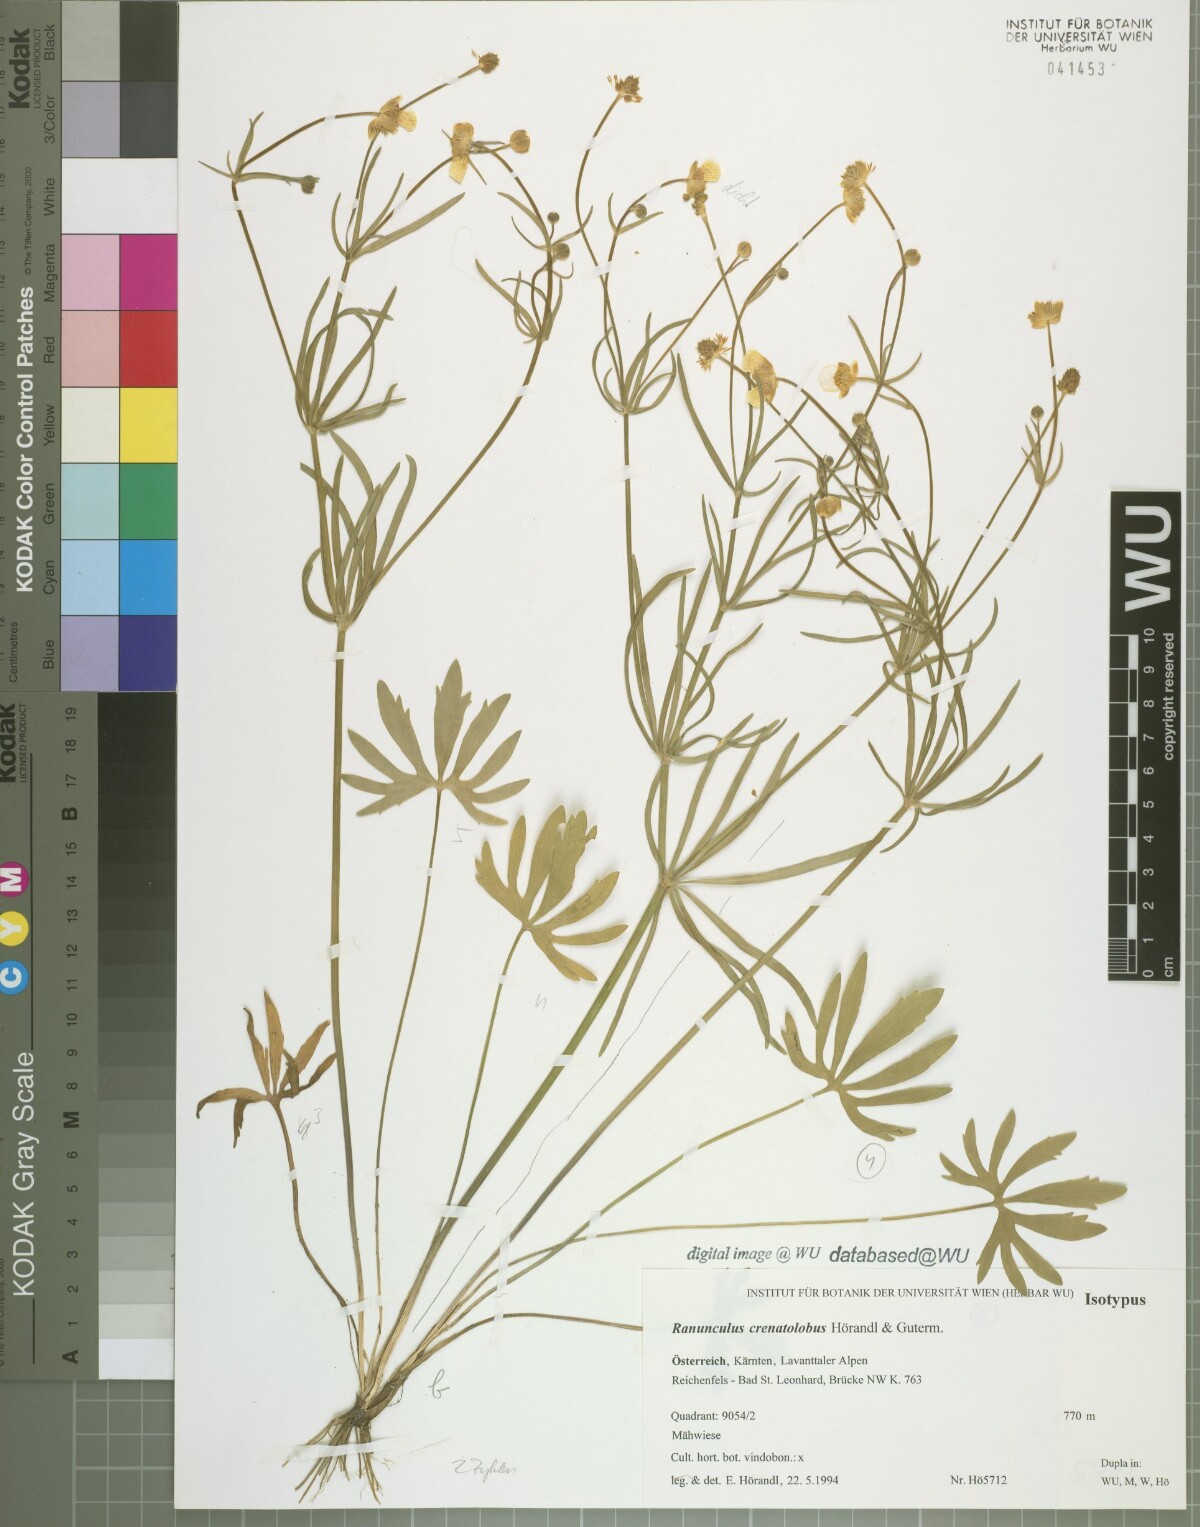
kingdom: Plantae
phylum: Tracheophyta
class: Magnoliopsida
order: Ranunculales
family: Ranunculaceae
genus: Ranunculus
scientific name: Ranunculus crenatolobus
